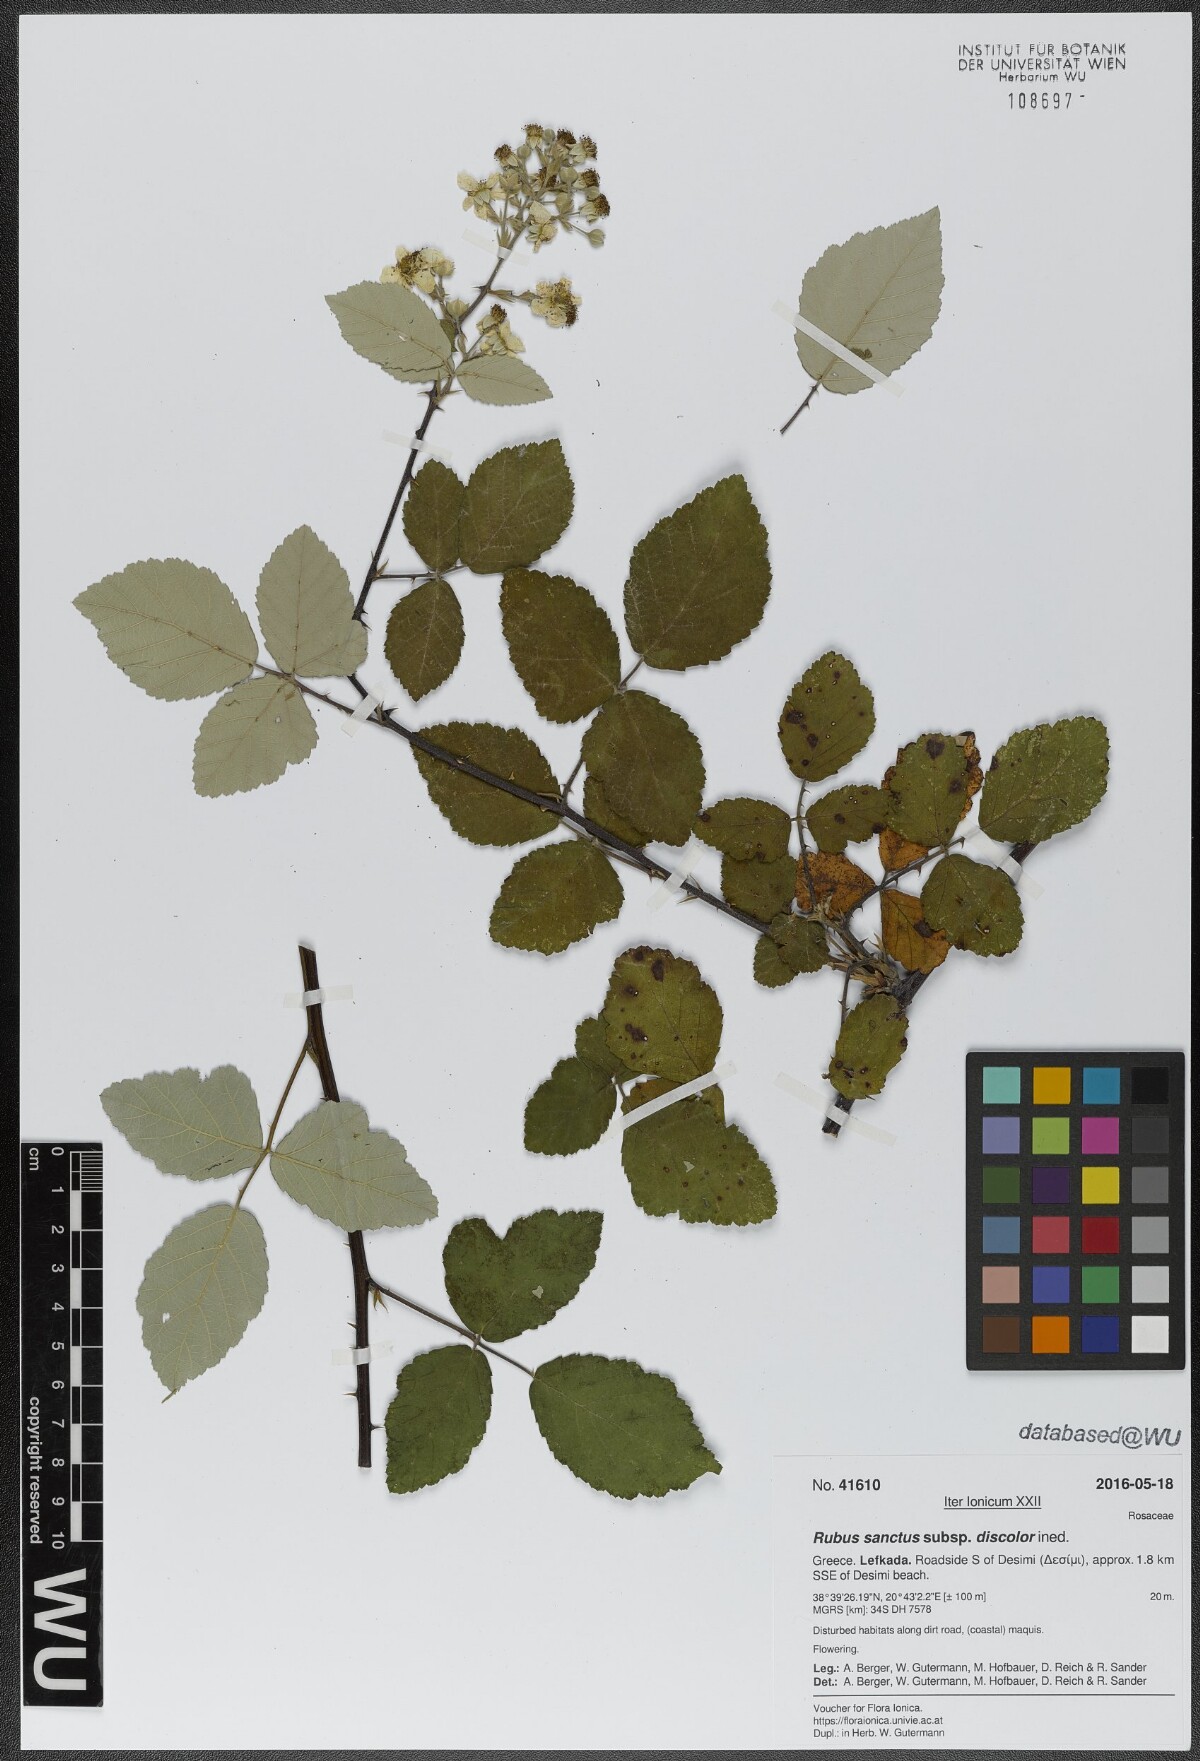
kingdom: Plantae
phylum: Tracheophyta
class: Magnoliopsida
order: Rosales
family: Rosaceae
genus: Rubus
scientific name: Rubus sanctus
